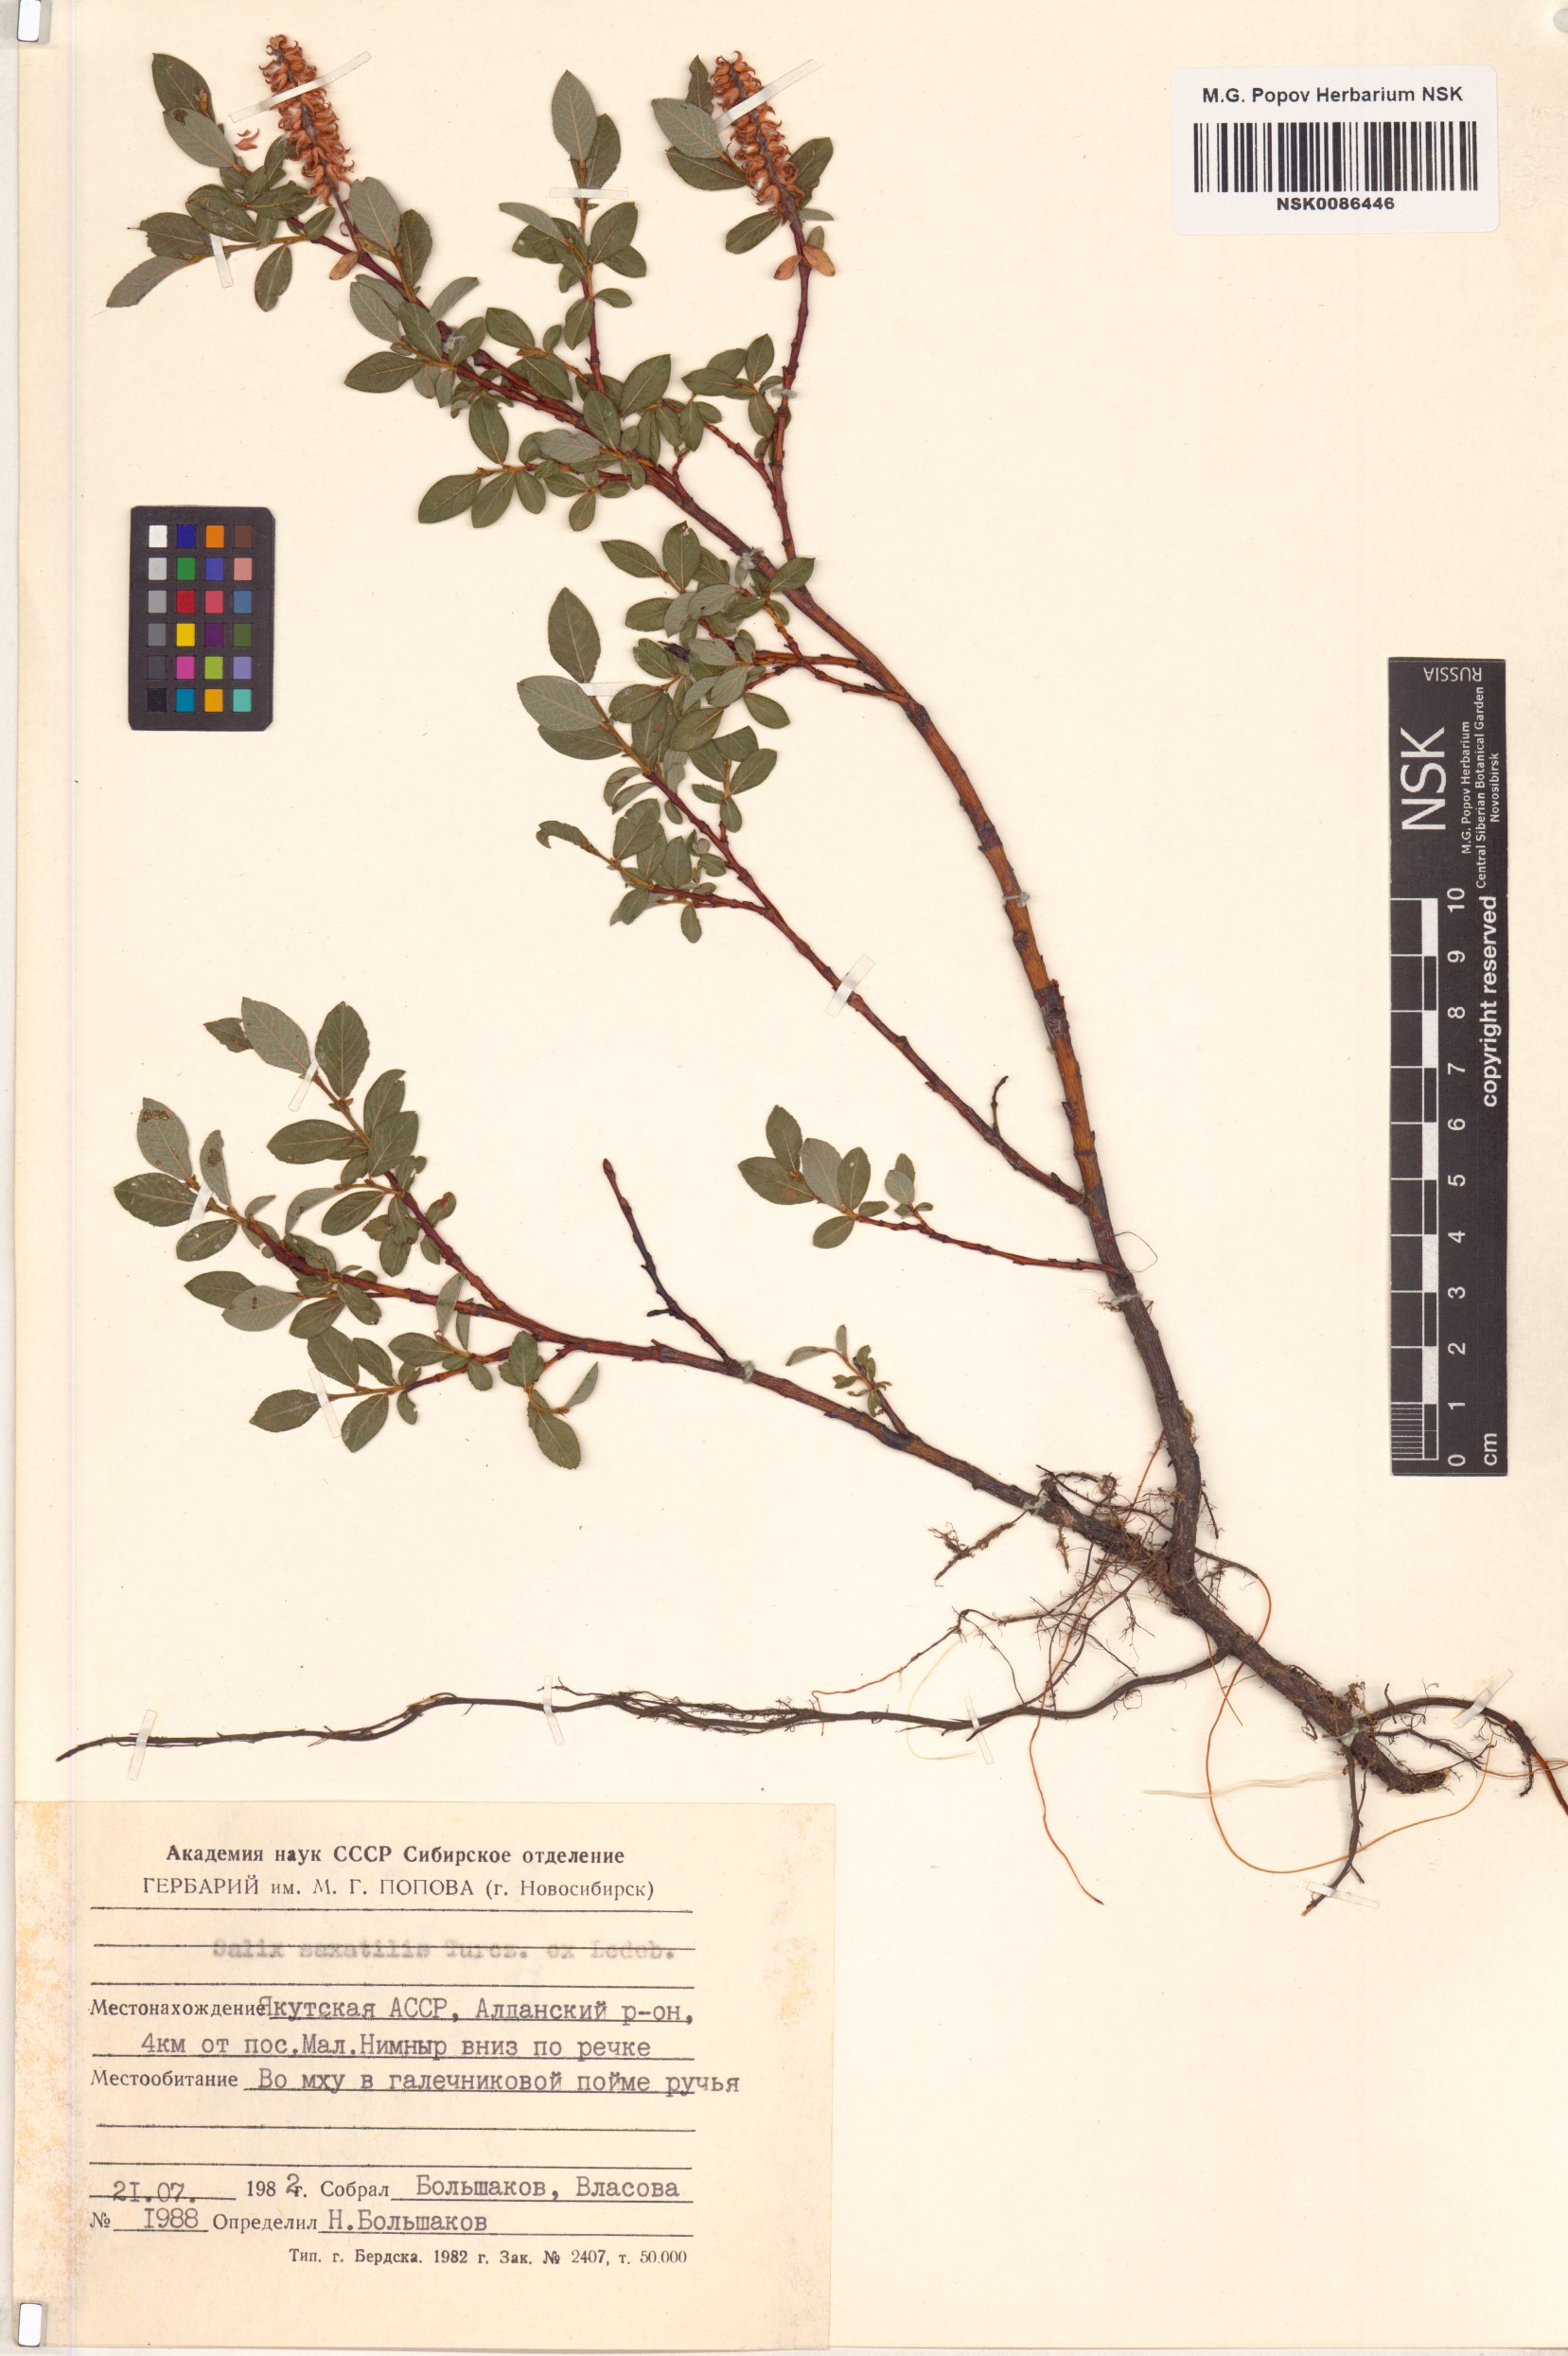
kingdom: Plantae
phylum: Tracheophyta
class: Magnoliopsida
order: Malpighiales
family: Salicaceae
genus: Salix
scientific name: Salix saxatilis
